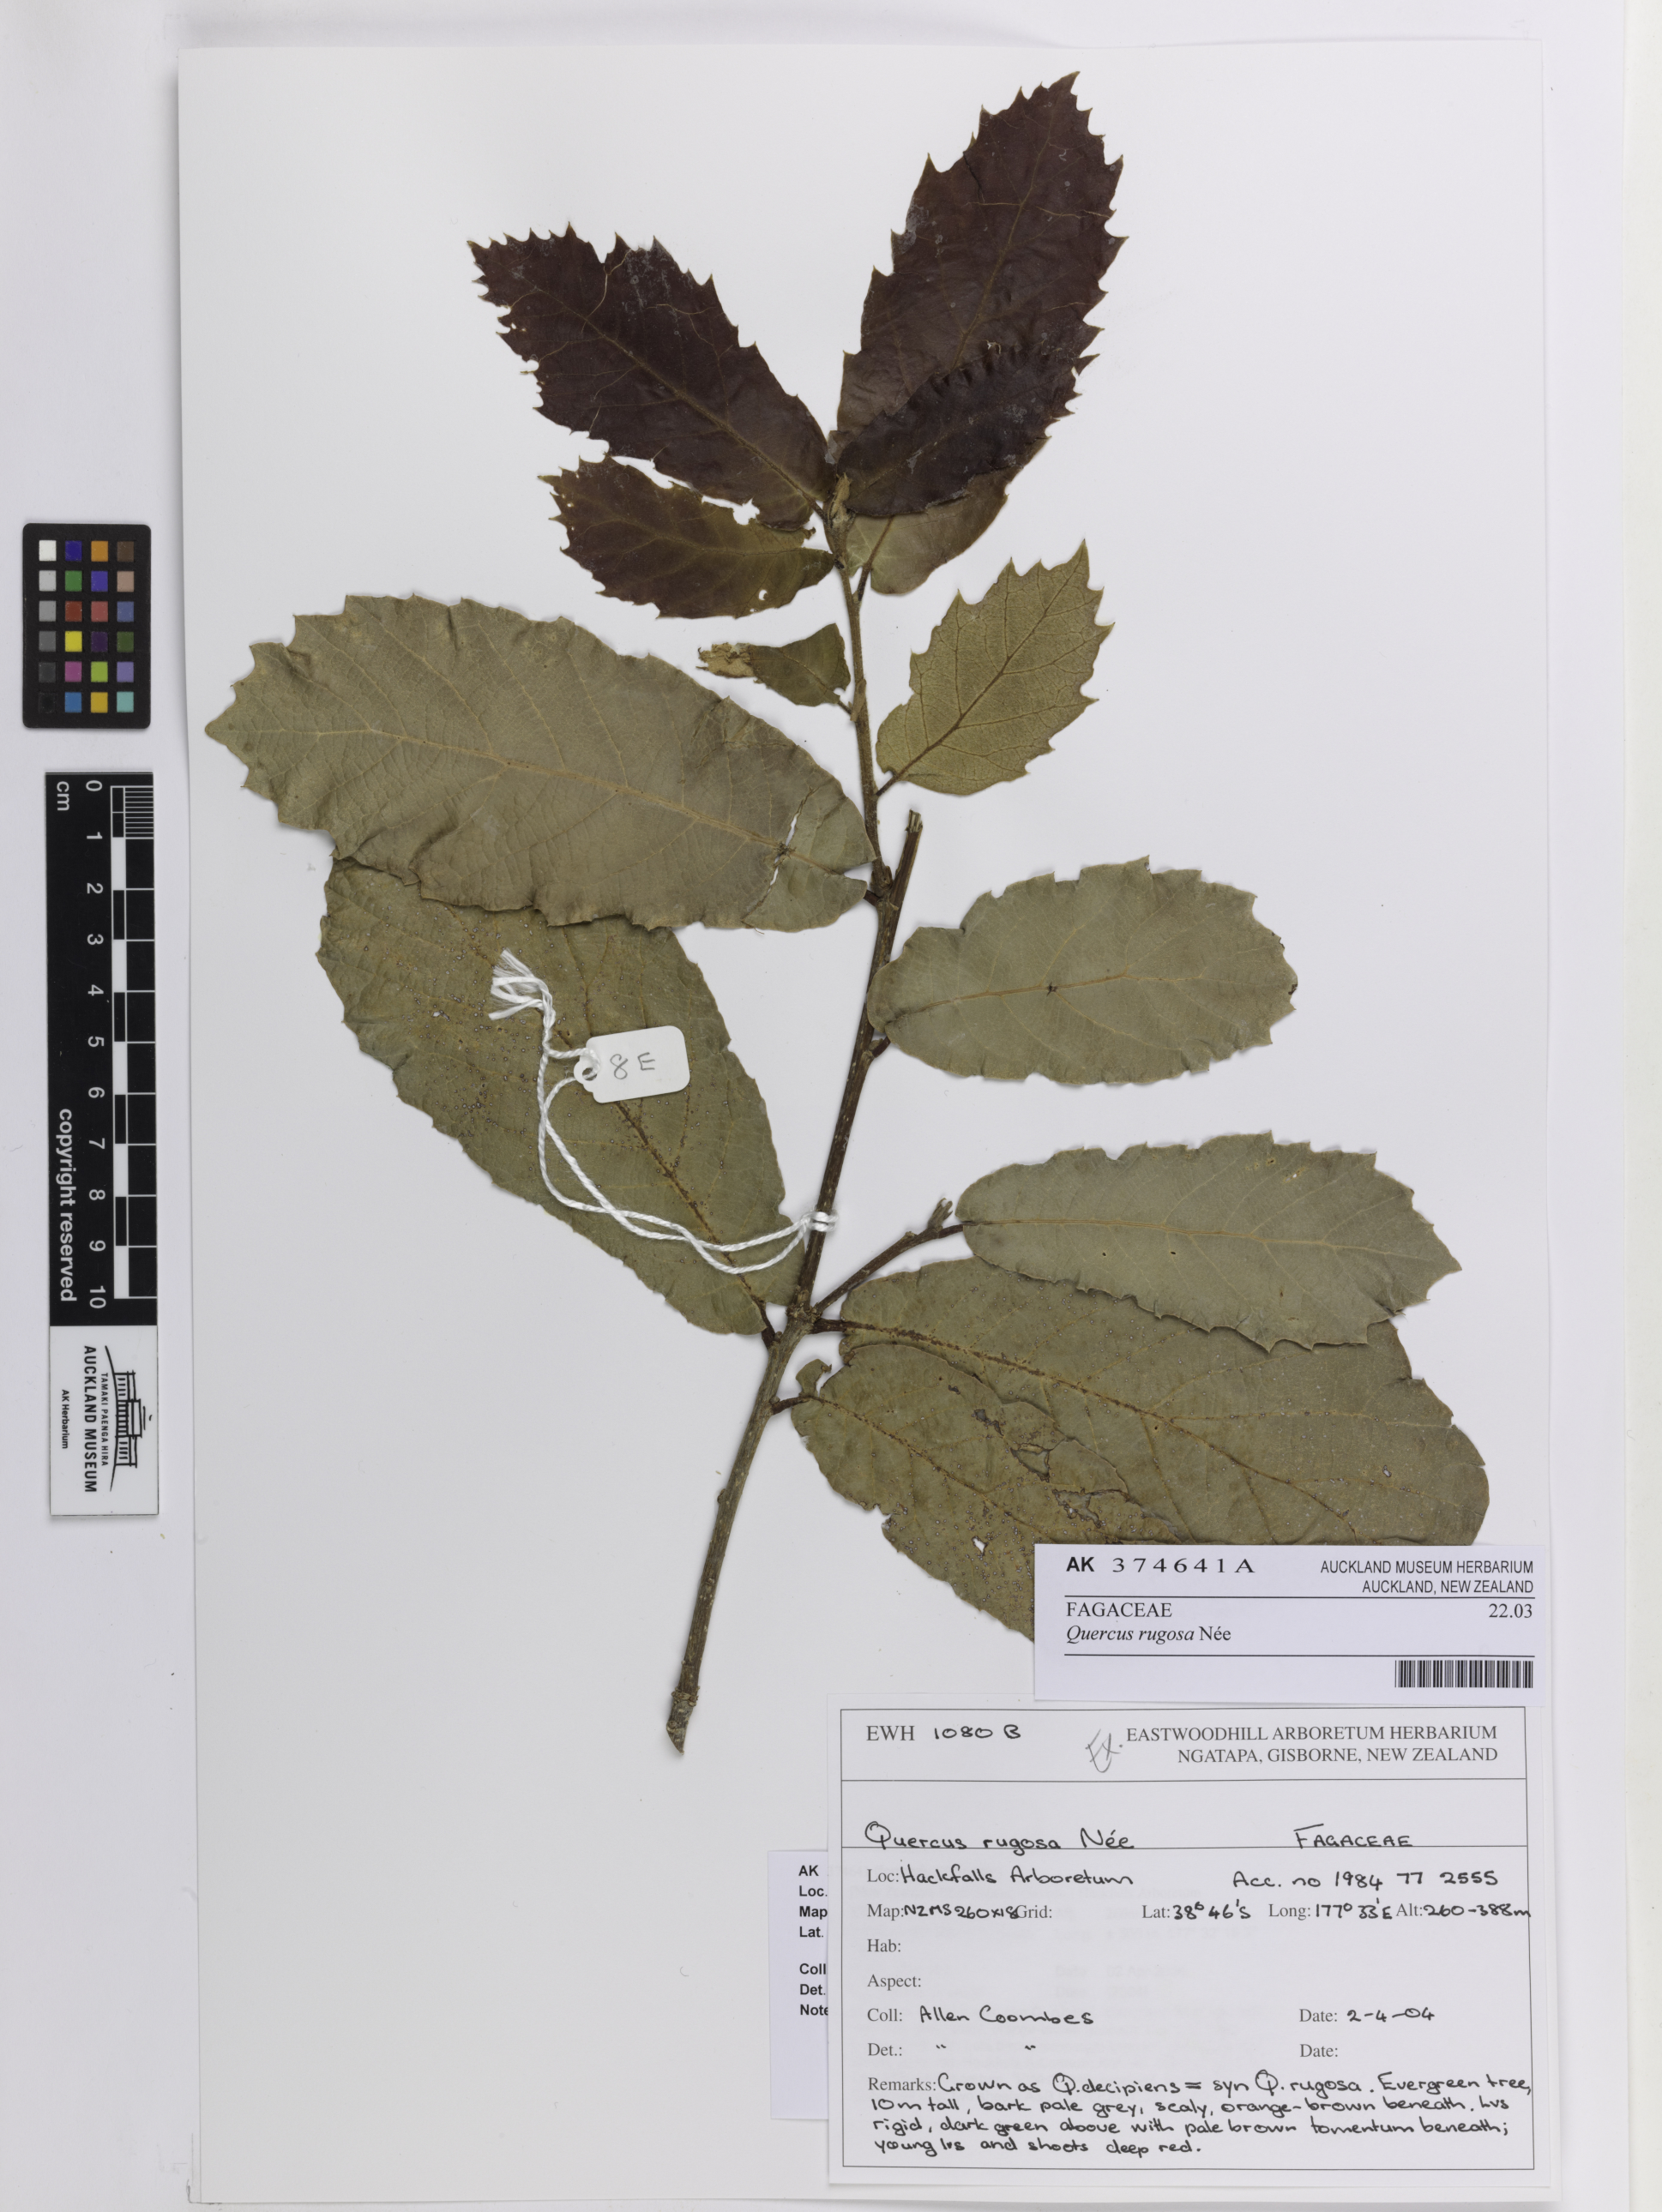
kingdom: Plantae
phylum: Tracheophyta
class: Magnoliopsida
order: Fagales
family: Fagaceae
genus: Quercus
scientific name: Quercus rugosa
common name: Netleaf oak
